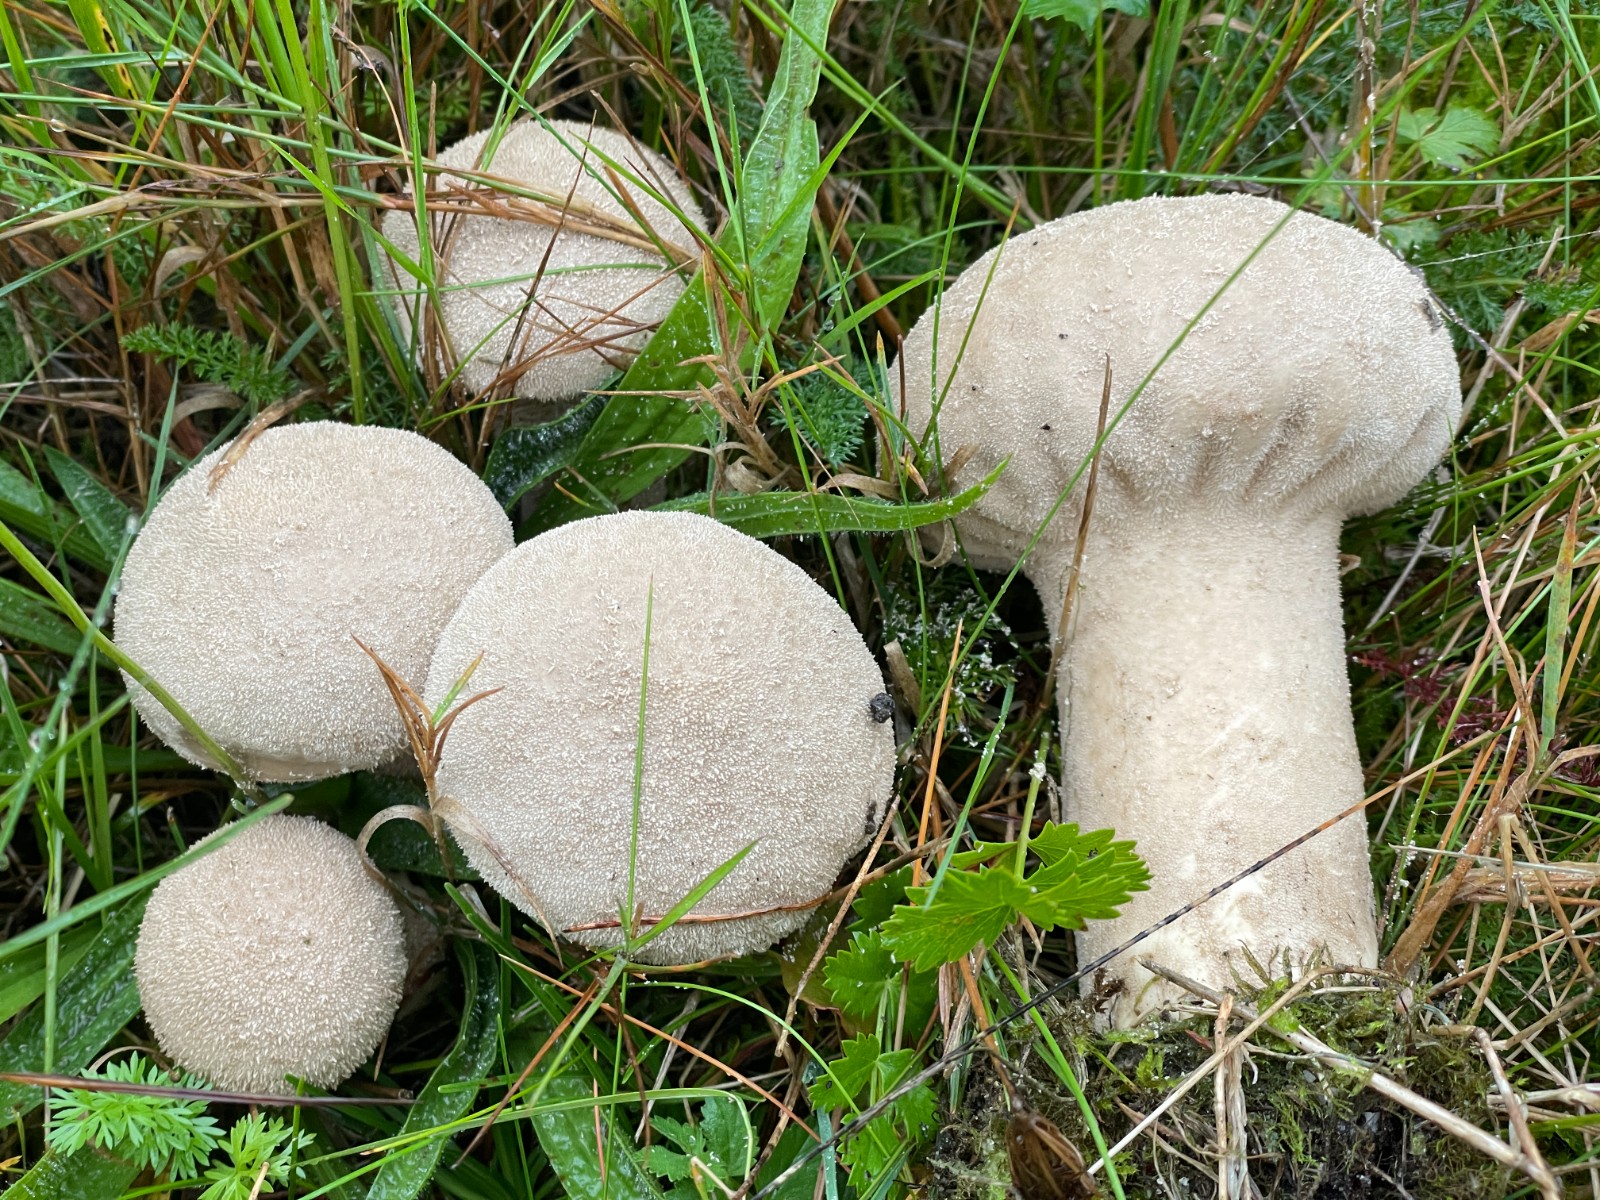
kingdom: Fungi
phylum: Basidiomycota
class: Agaricomycetes
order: Agaricales
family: Lycoperdaceae
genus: Lycoperdon
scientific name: Lycoperdon excipuliforme
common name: højstokket støvbold
